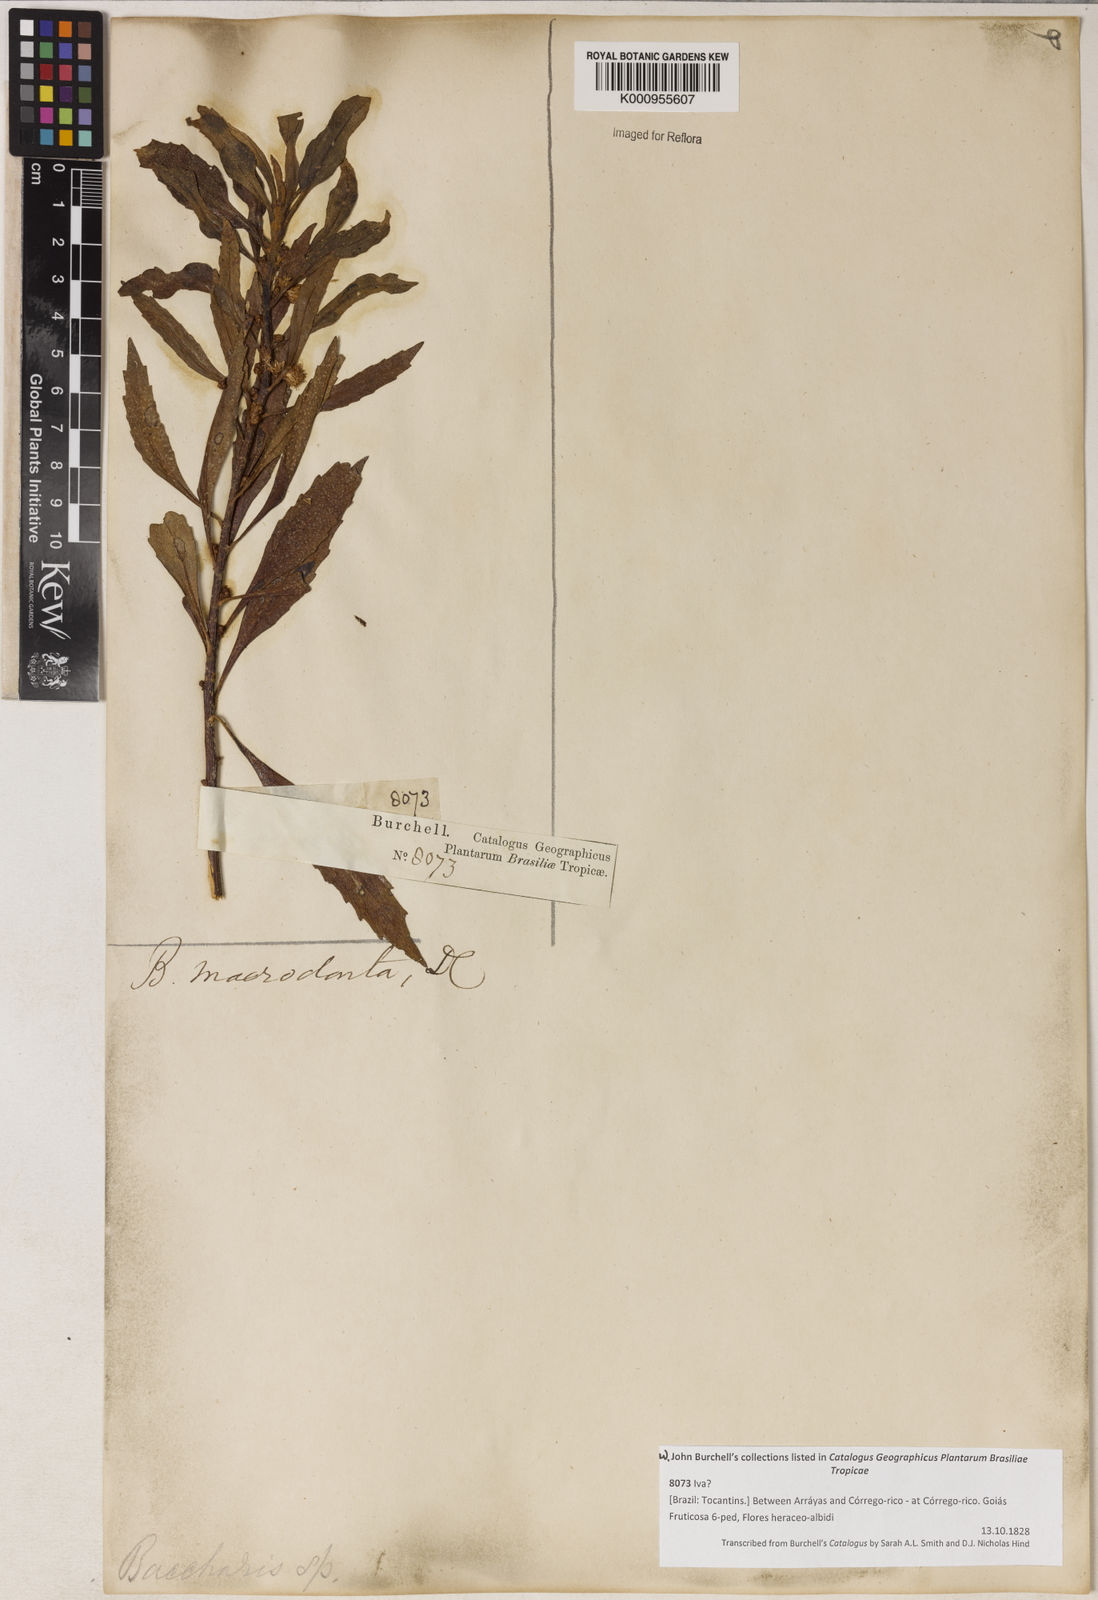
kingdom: Plantae
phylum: Tracheophyta
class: Magnoliopsida
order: Asterales
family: Asteraceae
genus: Baccharis
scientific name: Baccharis dentata
